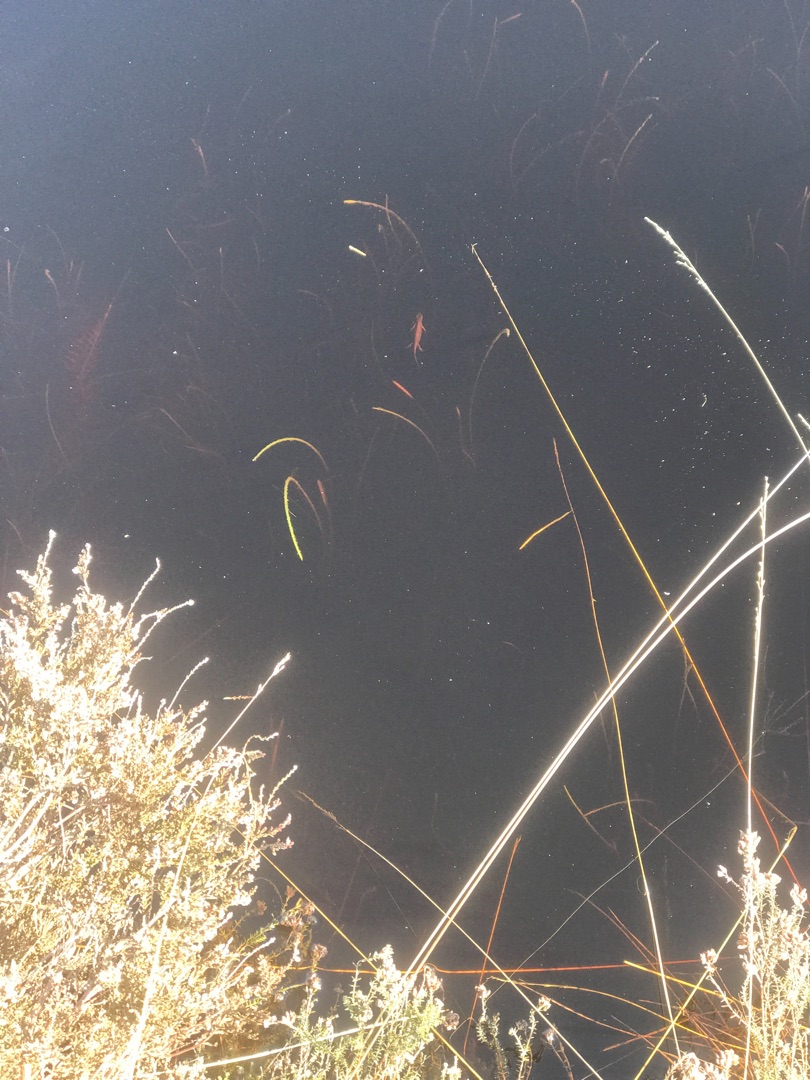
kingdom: Animalia
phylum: Chordata
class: Amphibia
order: Caudata
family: Salamandridae
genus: Lissotriton
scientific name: Lissotriton vulgaris
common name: Lille vandsalamander
